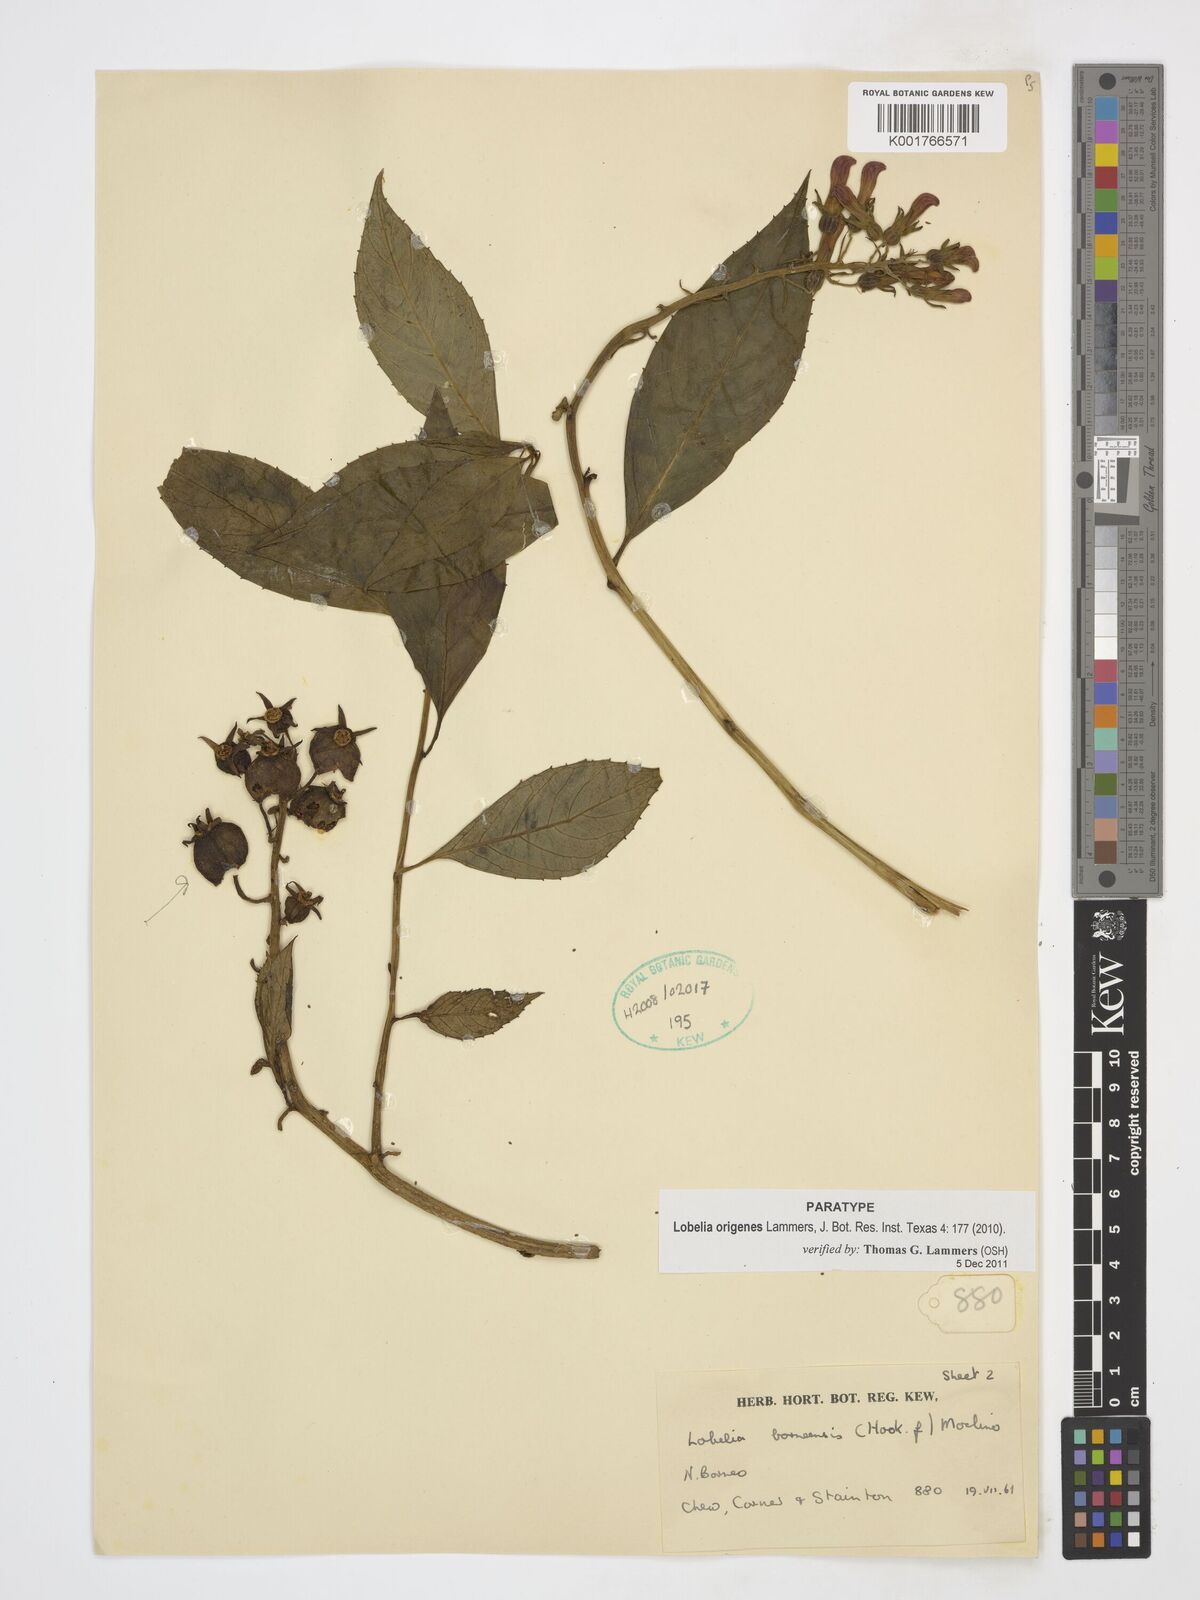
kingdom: Plantae
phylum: Tracheophyta
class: Magnoliopsida
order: Asterales
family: Campanulaceae
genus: Lobelia
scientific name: Lobelia origenes
